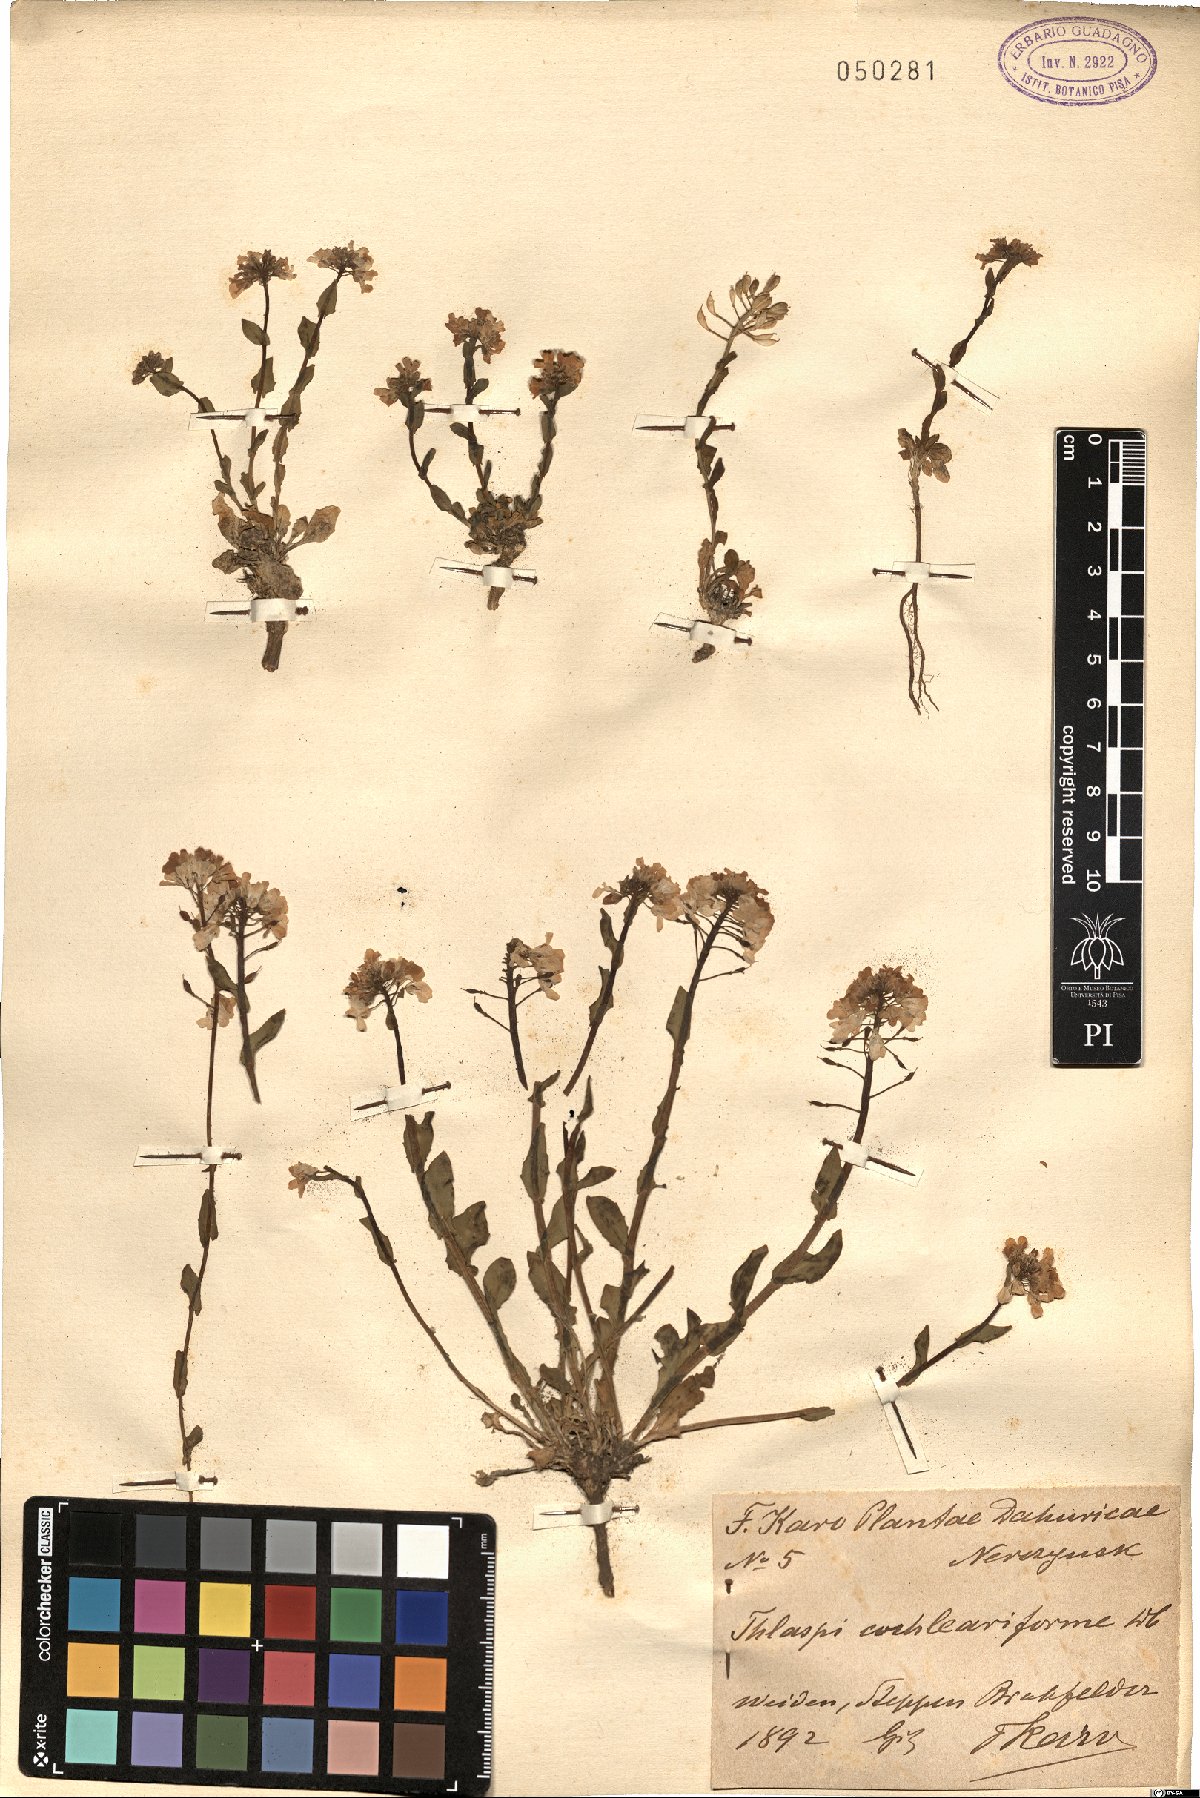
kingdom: Plantae
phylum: Tracheophyta
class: Magnoliopsida
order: Brassicales
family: Brassicaceae
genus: Noccaea
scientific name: Noccaea thlaspidioides
